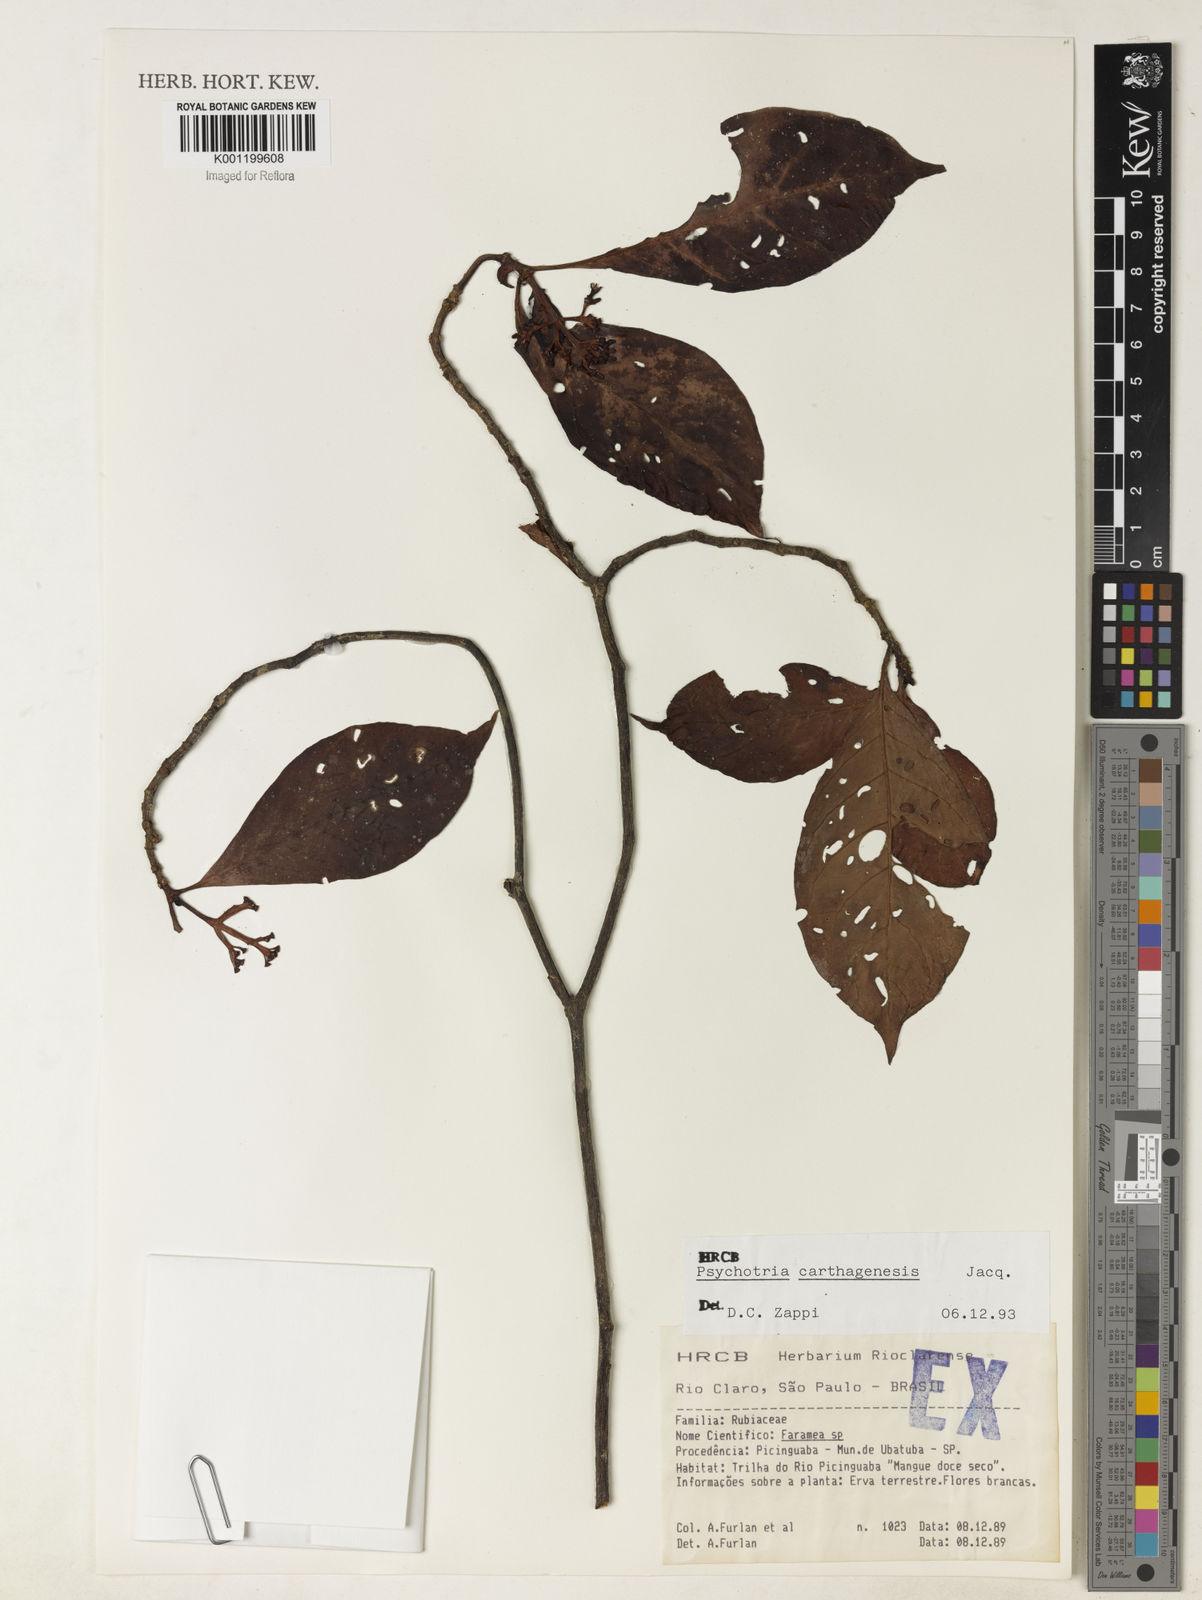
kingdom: Plantae
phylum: Tracheophyta
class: Magnoliopsida
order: Gentianales
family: Rubiaceae
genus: Psychotria
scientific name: Psychotria carthagenensis
